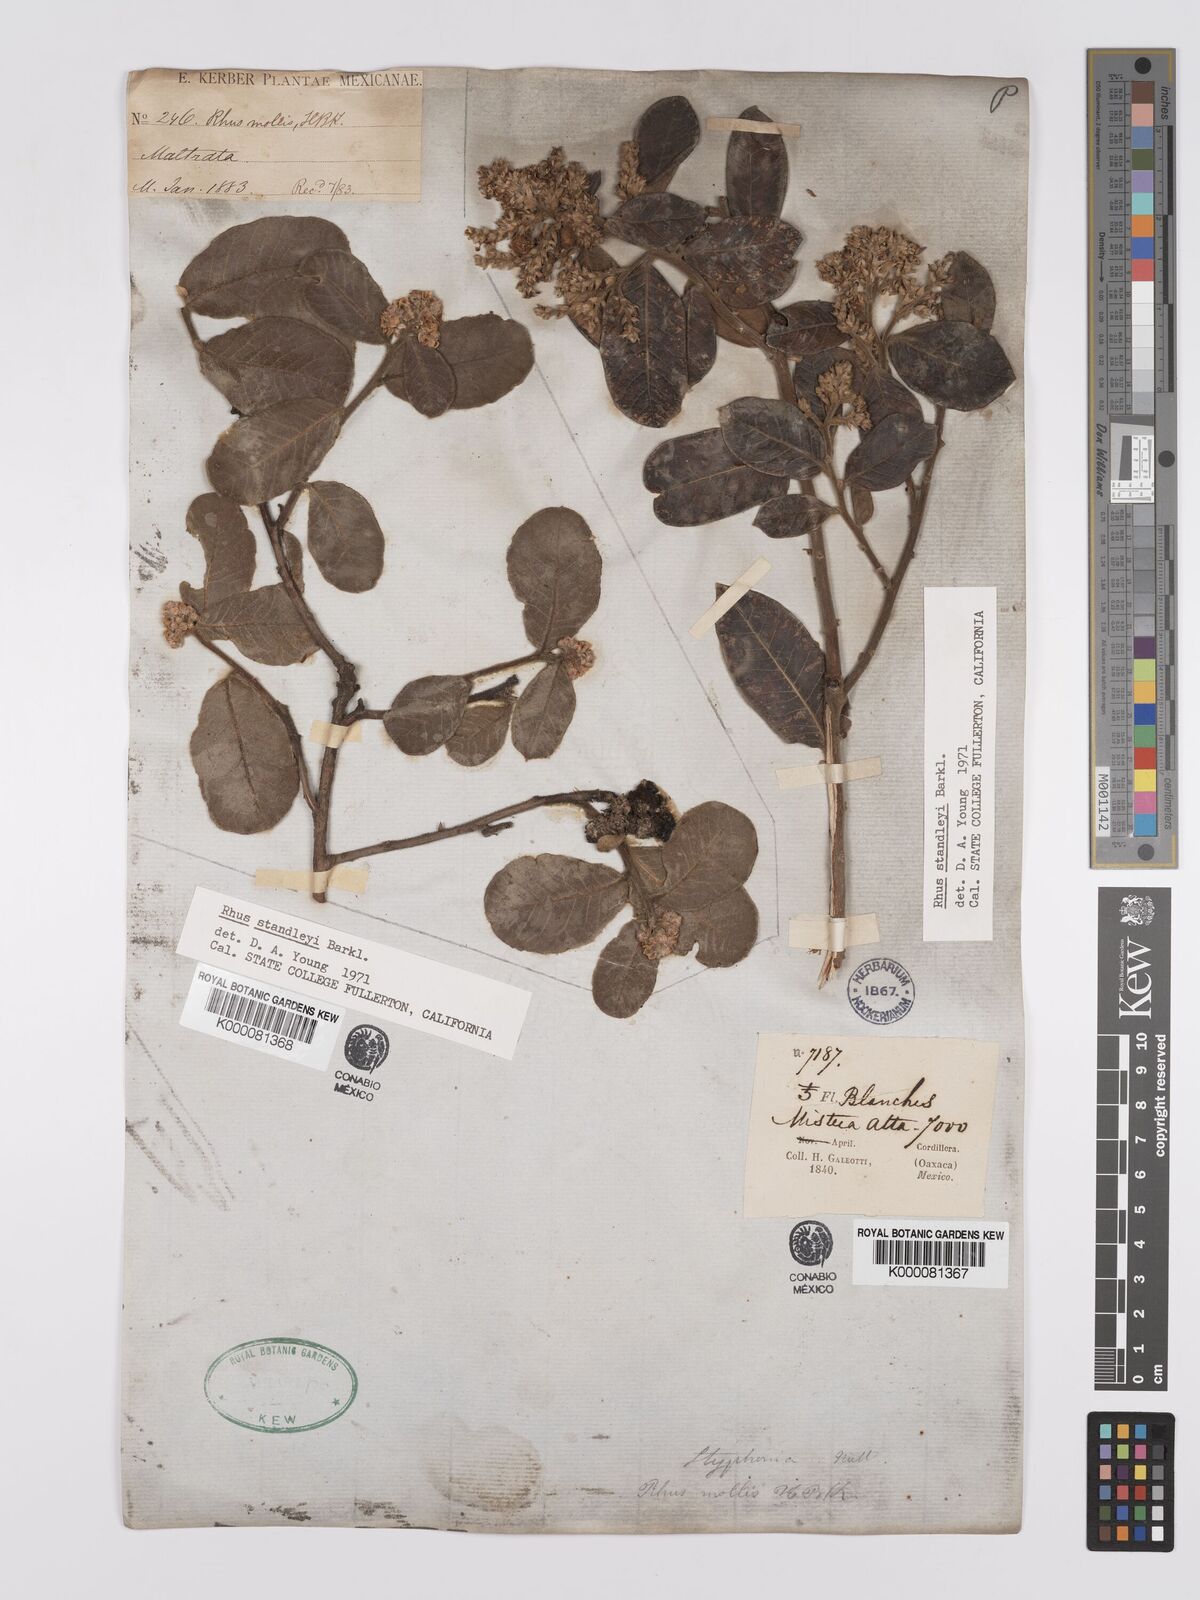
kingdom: Plantae
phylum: Tracheophyta
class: Magnoliopsida
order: Sapindales
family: Anacardiaceae
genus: Rhus
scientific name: Rhus standleyi
